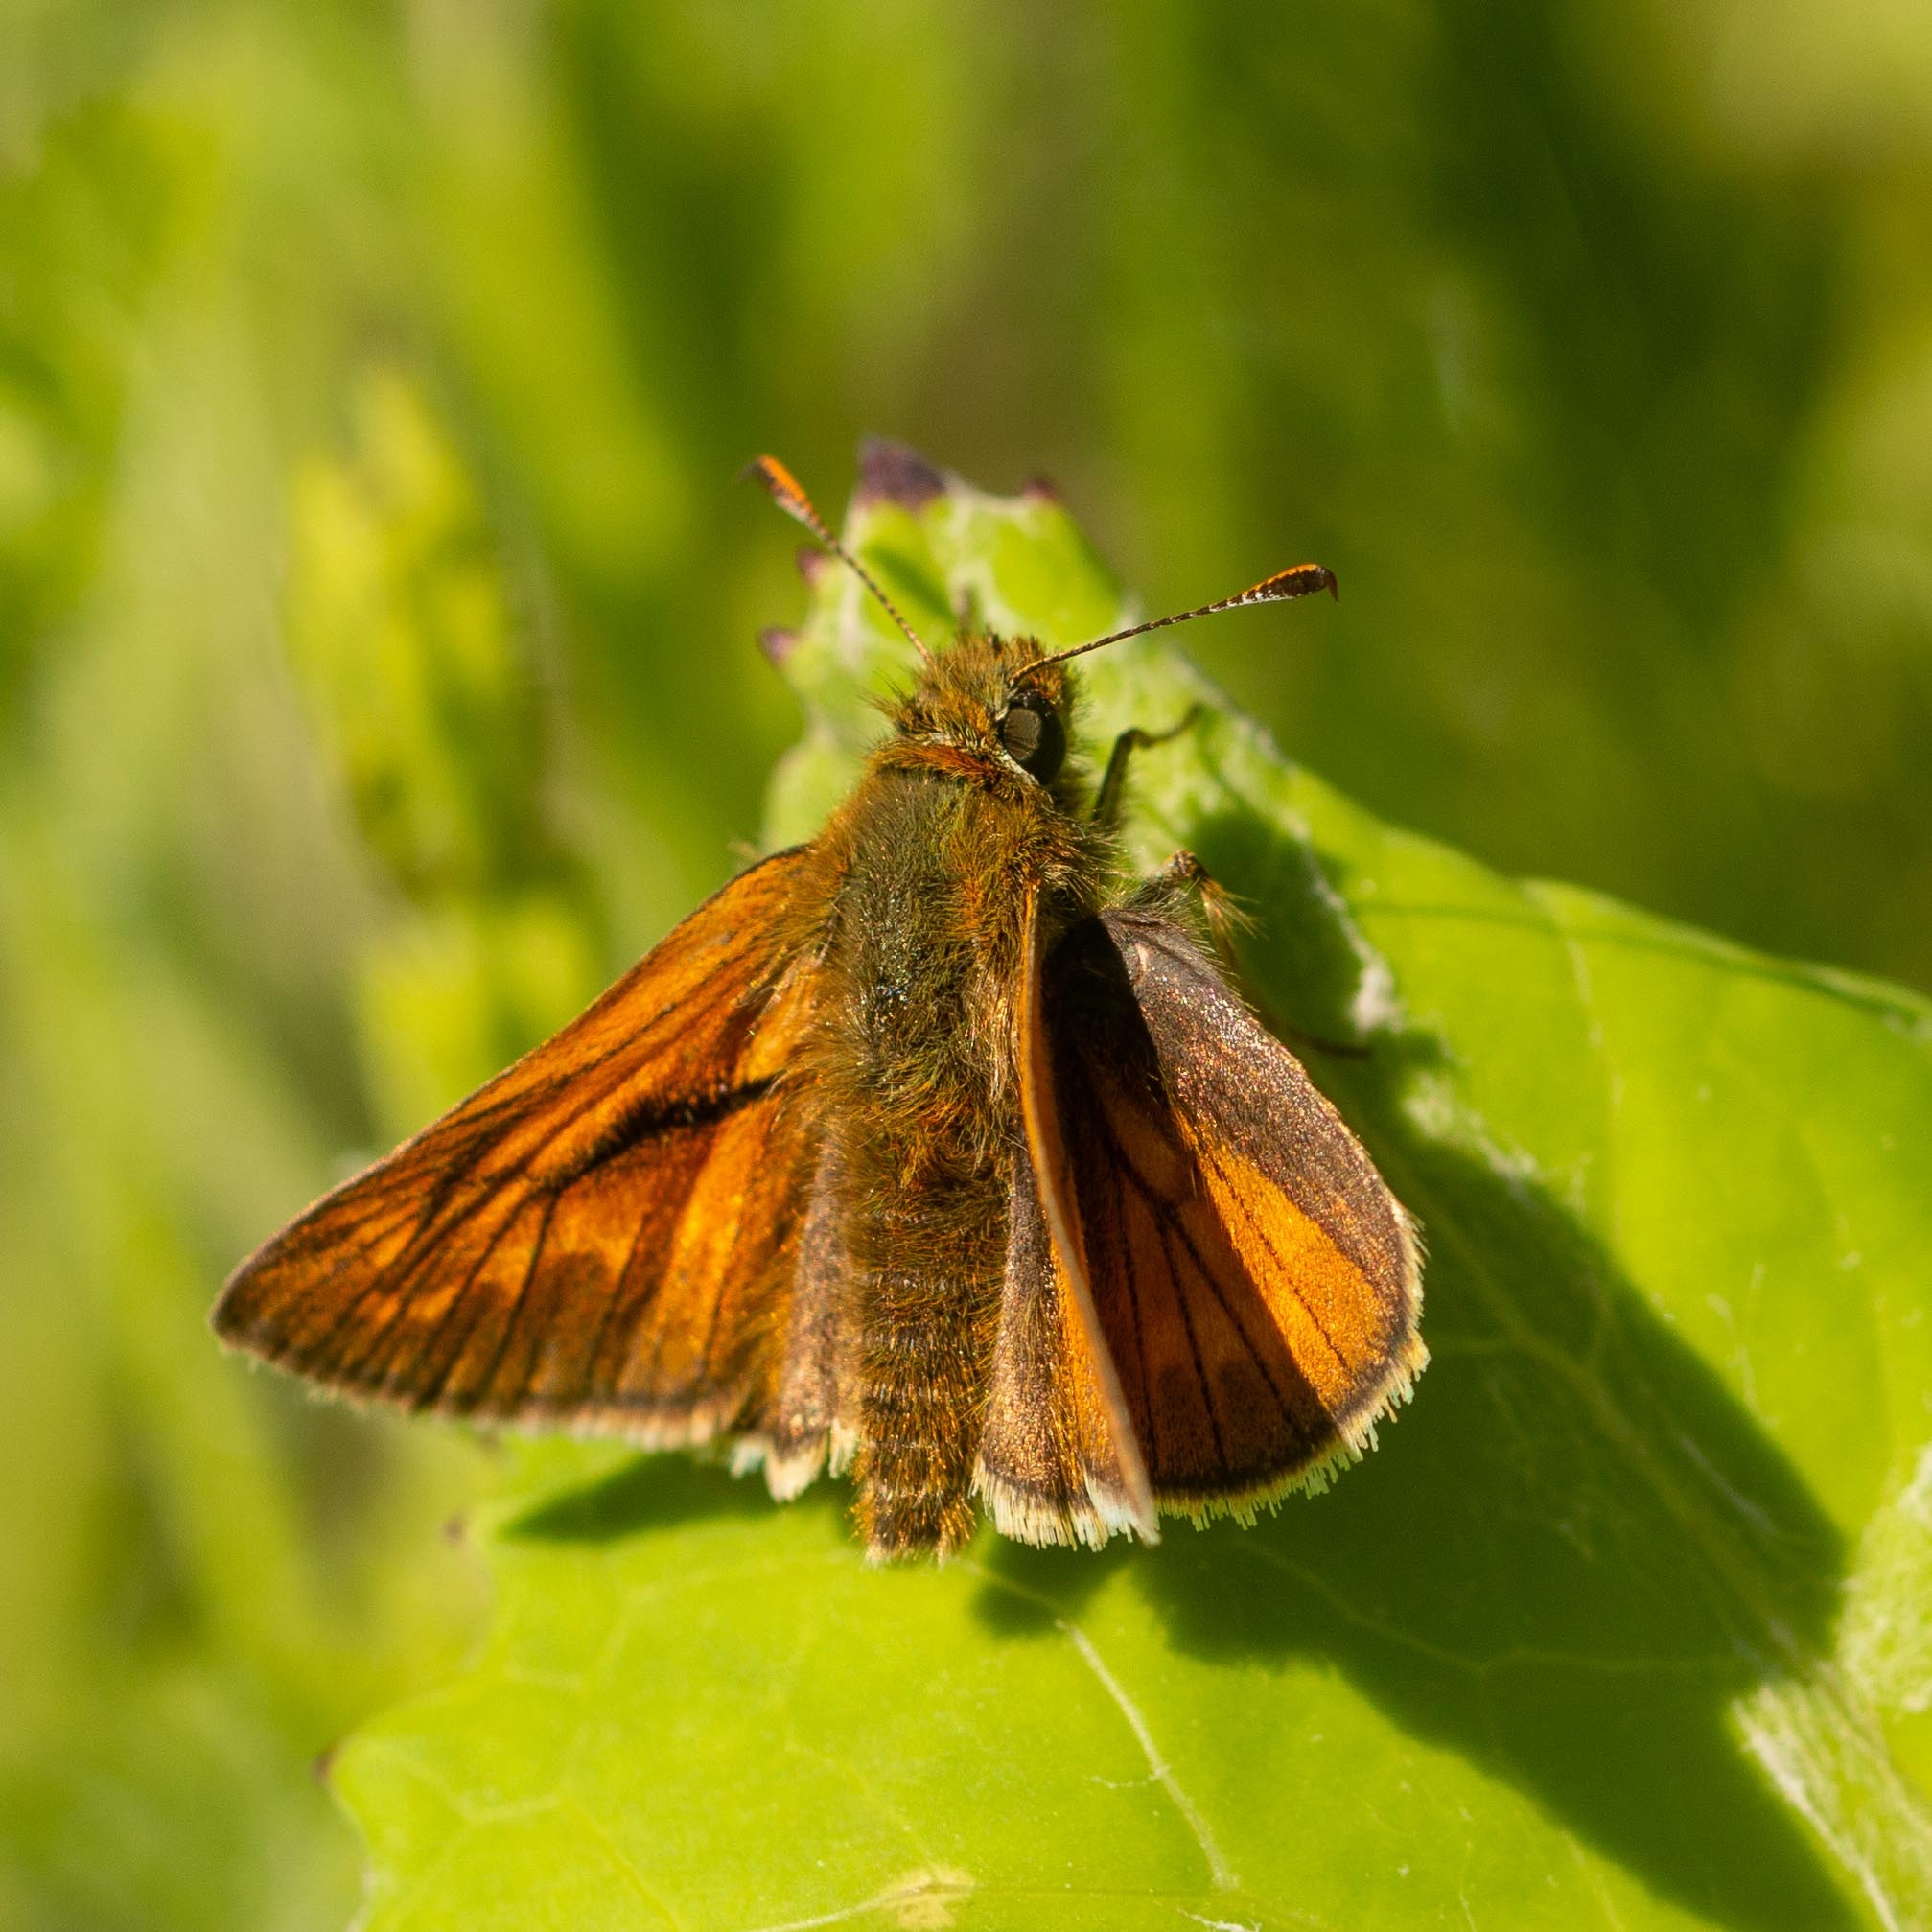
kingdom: Animalia
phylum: Arthropoda
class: Insecta
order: Lepidoptera
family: Hesperiidae
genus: Ochlodes
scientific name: Ochlodes venata
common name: Stor bredpande
